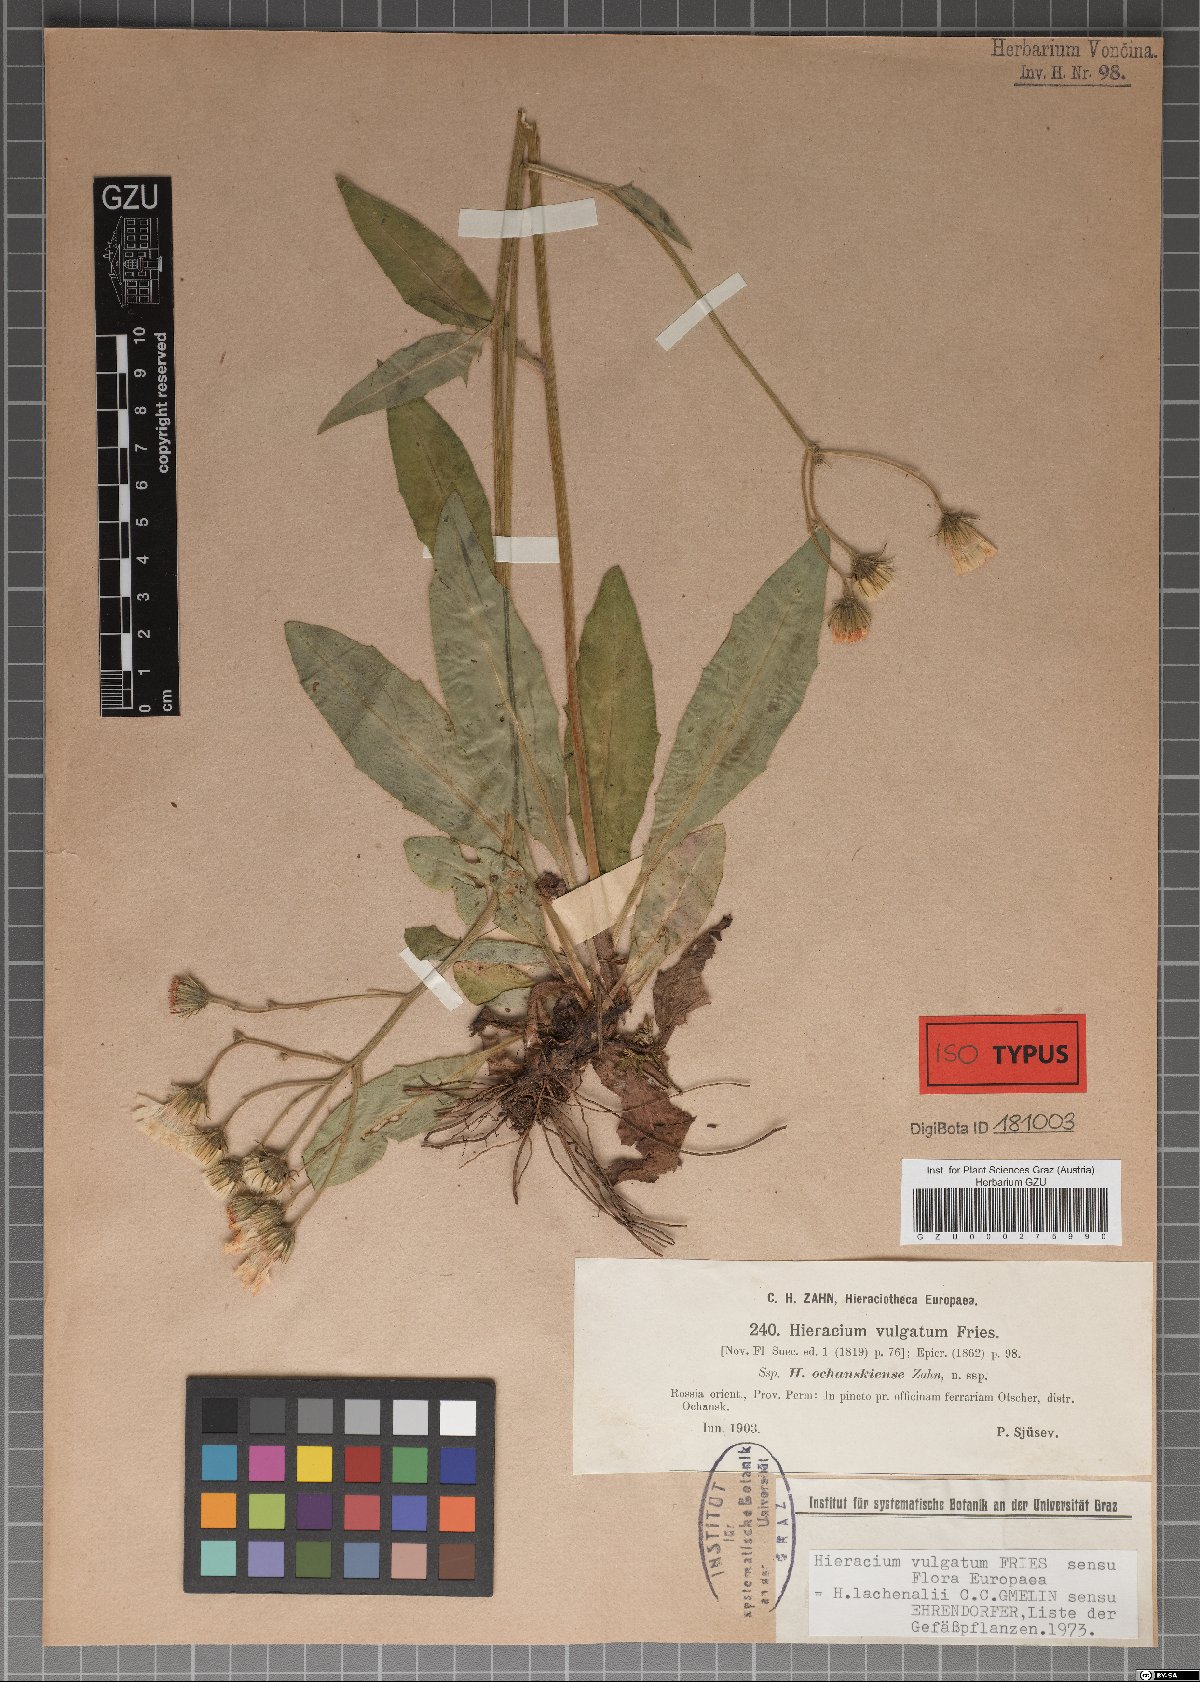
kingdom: Plantae
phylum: Tracheophyta
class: Magnoliopsida
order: Asterales
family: Asteraceae
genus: Hieracium
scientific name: Hieracium ochanskiense
